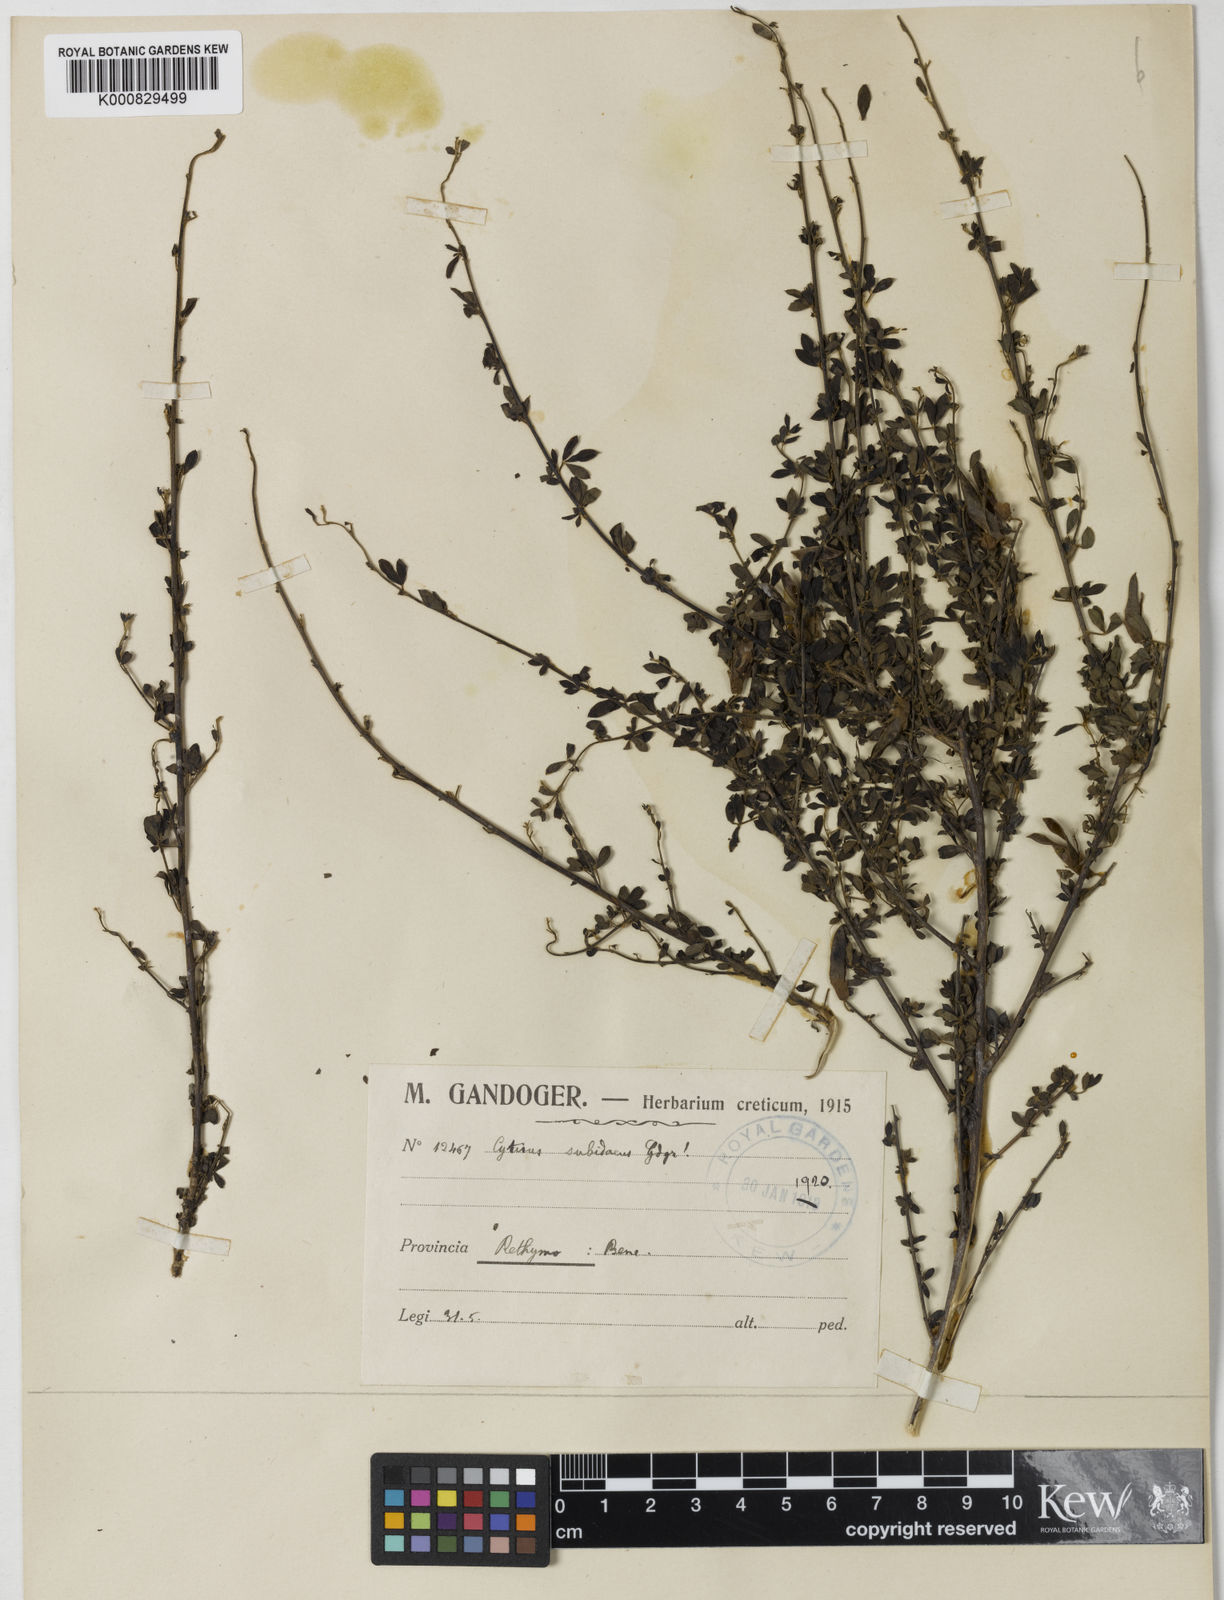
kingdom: Plantae
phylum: Tracheophyta
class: Magnoliopsida
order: Fabales
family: Fabaceae
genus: Chamaecytisus
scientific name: Chamaecytisus spinescens
